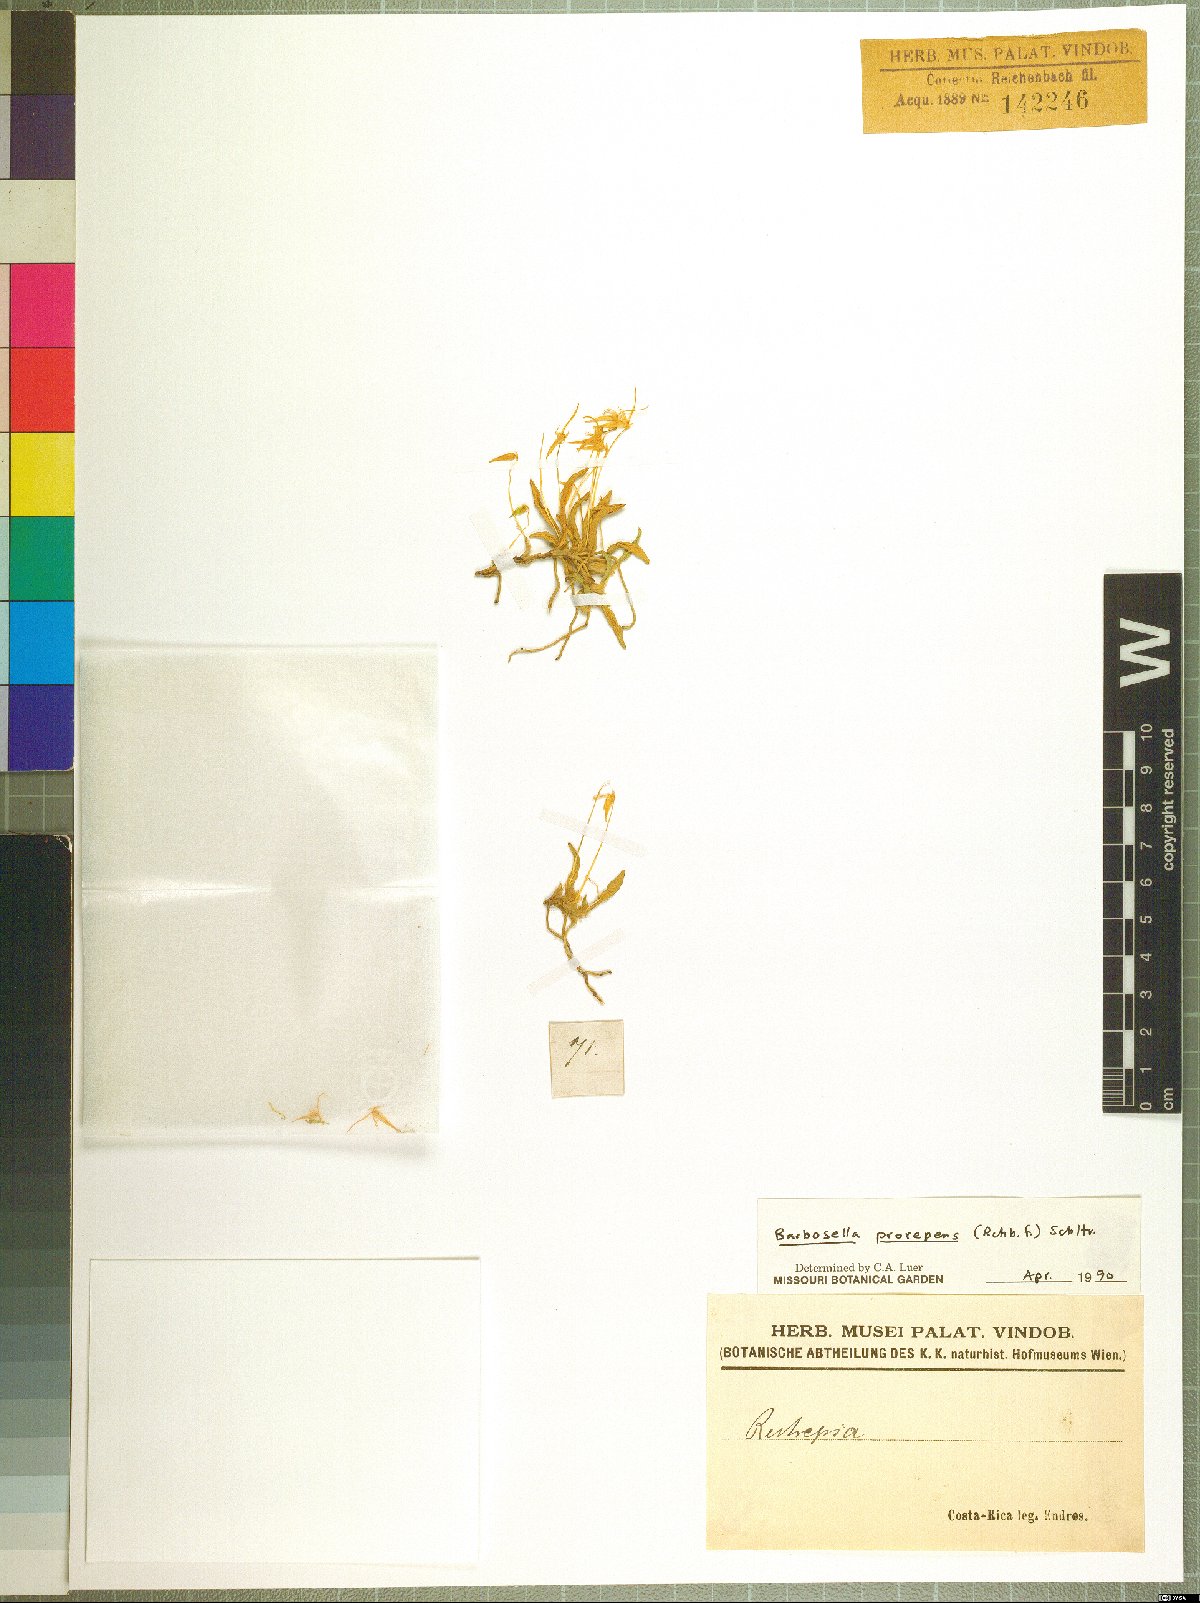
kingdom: Plantae
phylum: Tracheophyta
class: Liliopsida
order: Asparagales
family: Orchidaceae
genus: Barbosella
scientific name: Barbosella prorepens
